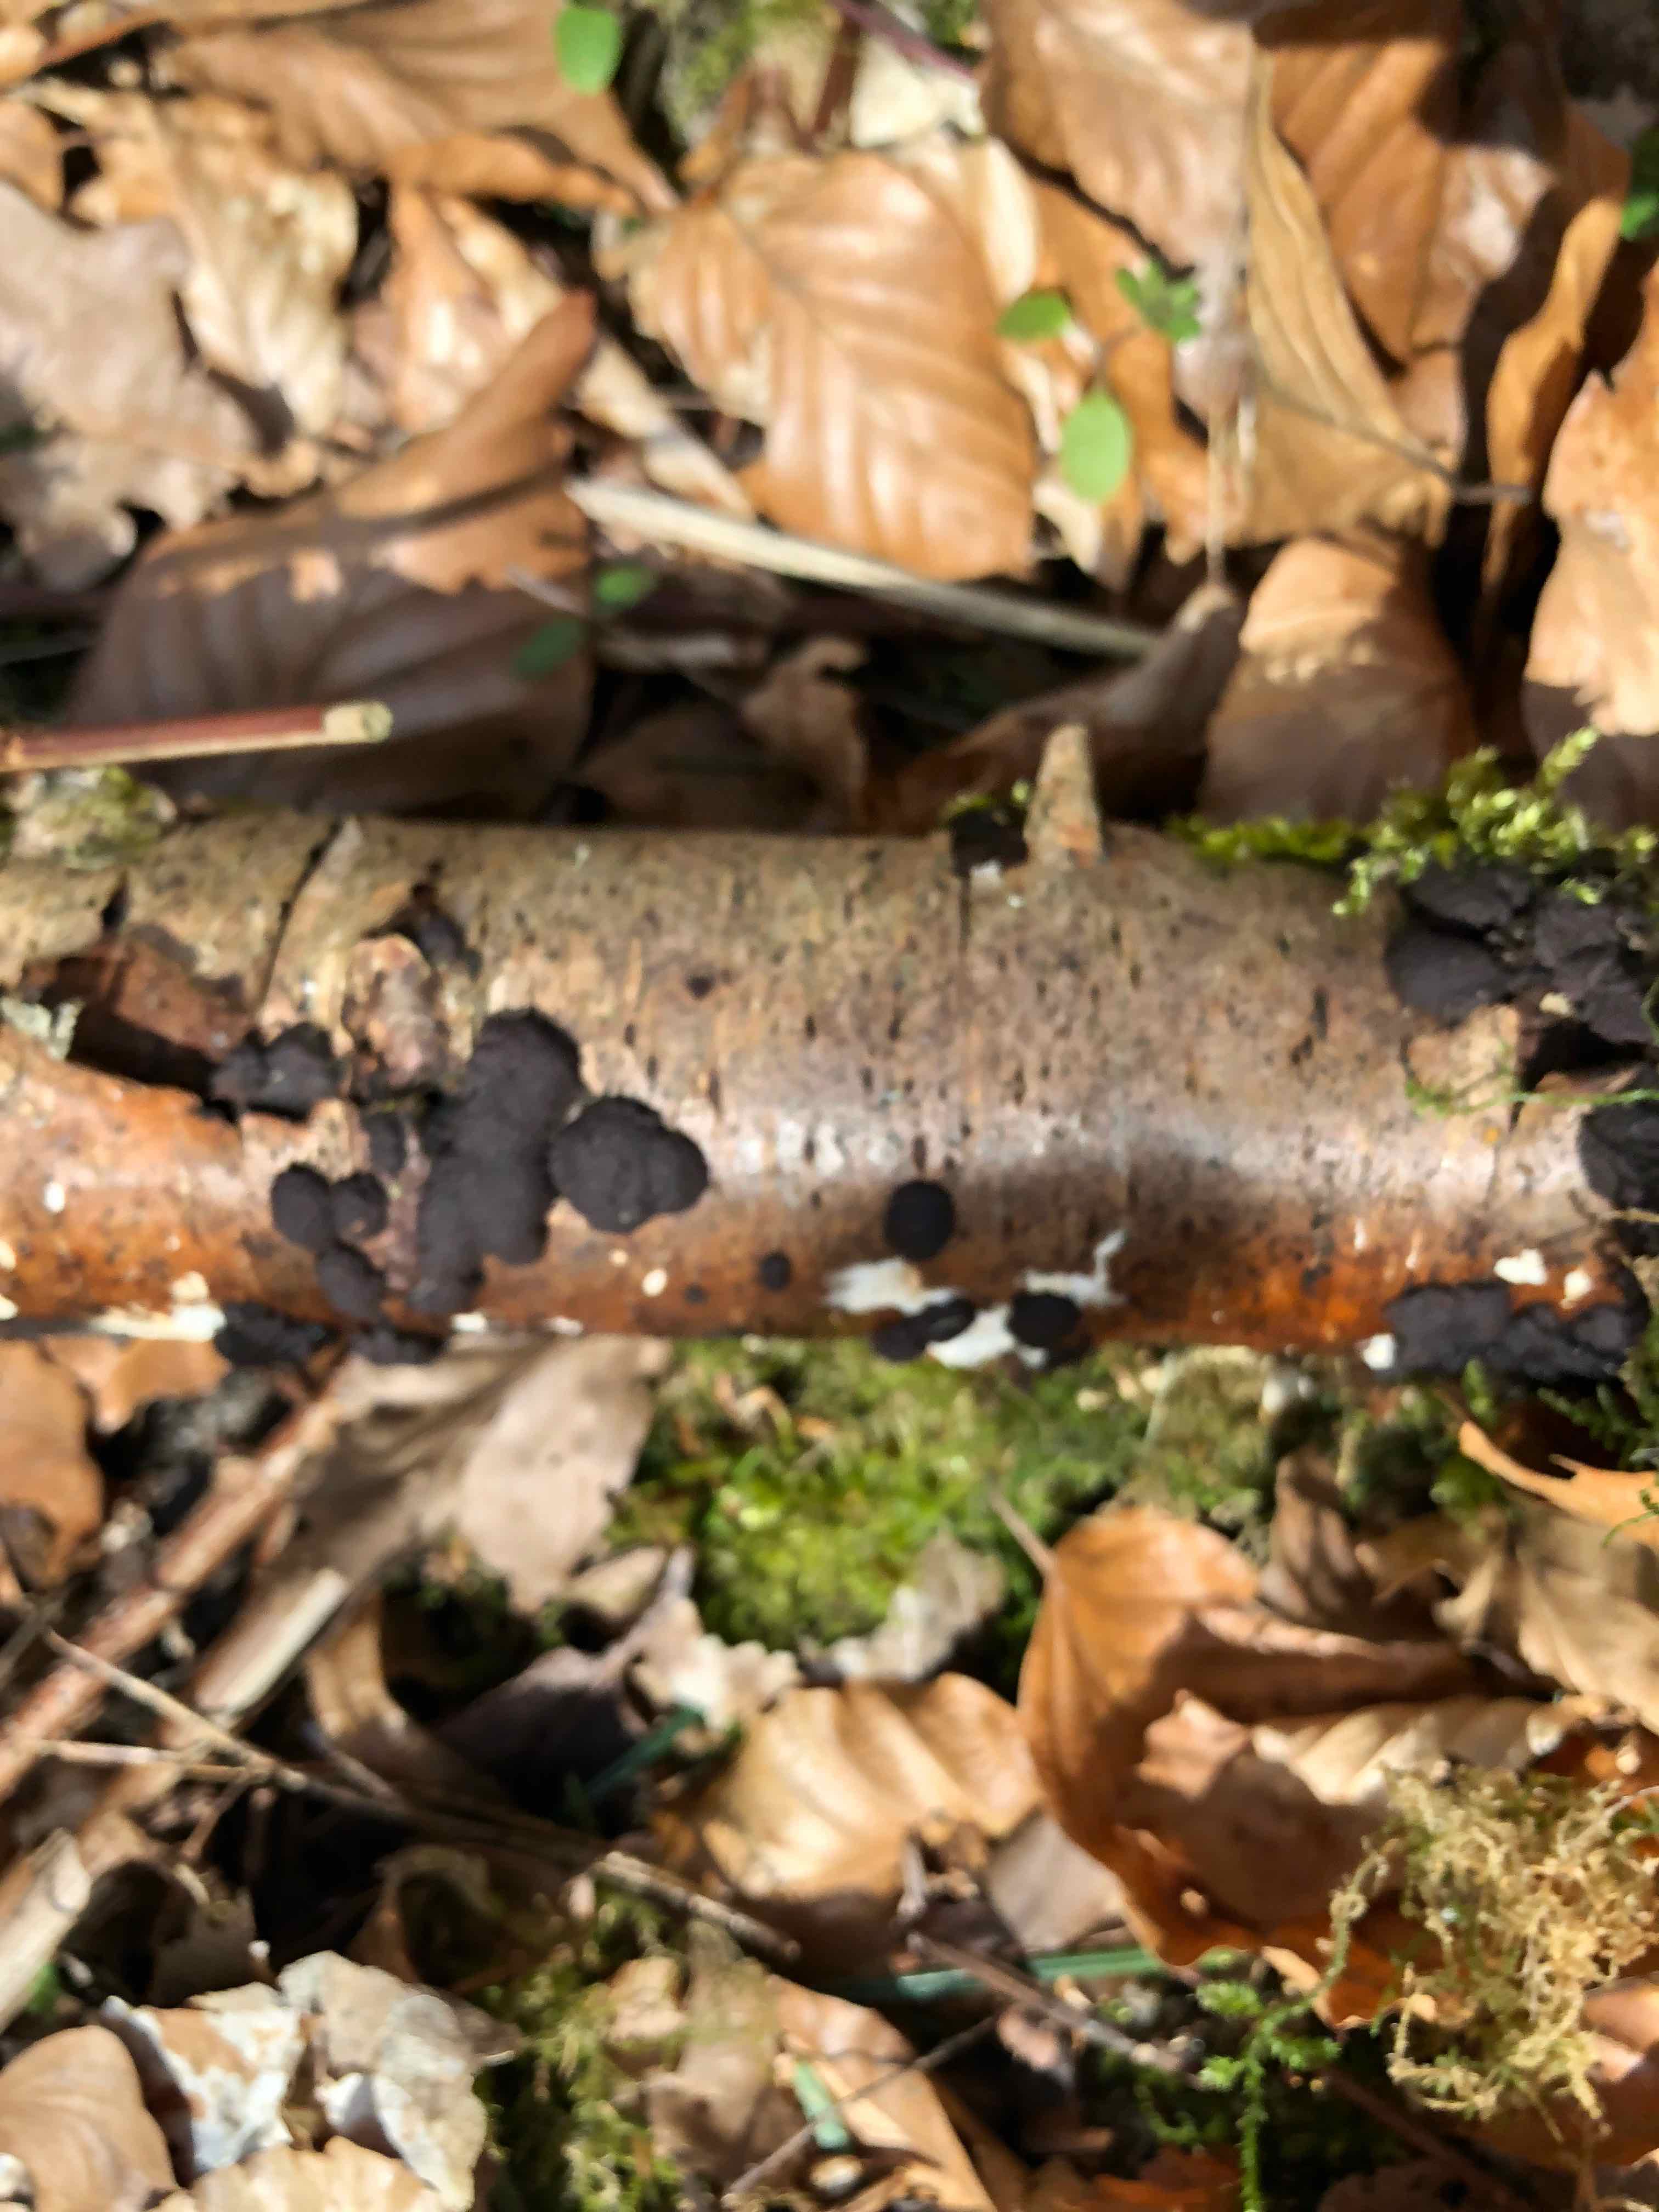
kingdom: Fungi
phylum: Ascomycota
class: Sordariomycetes
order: Xylariales
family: Hypoxylaceae
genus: Jackrogersella
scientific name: Jackrogersella multiformis
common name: foranderlig kulbær
